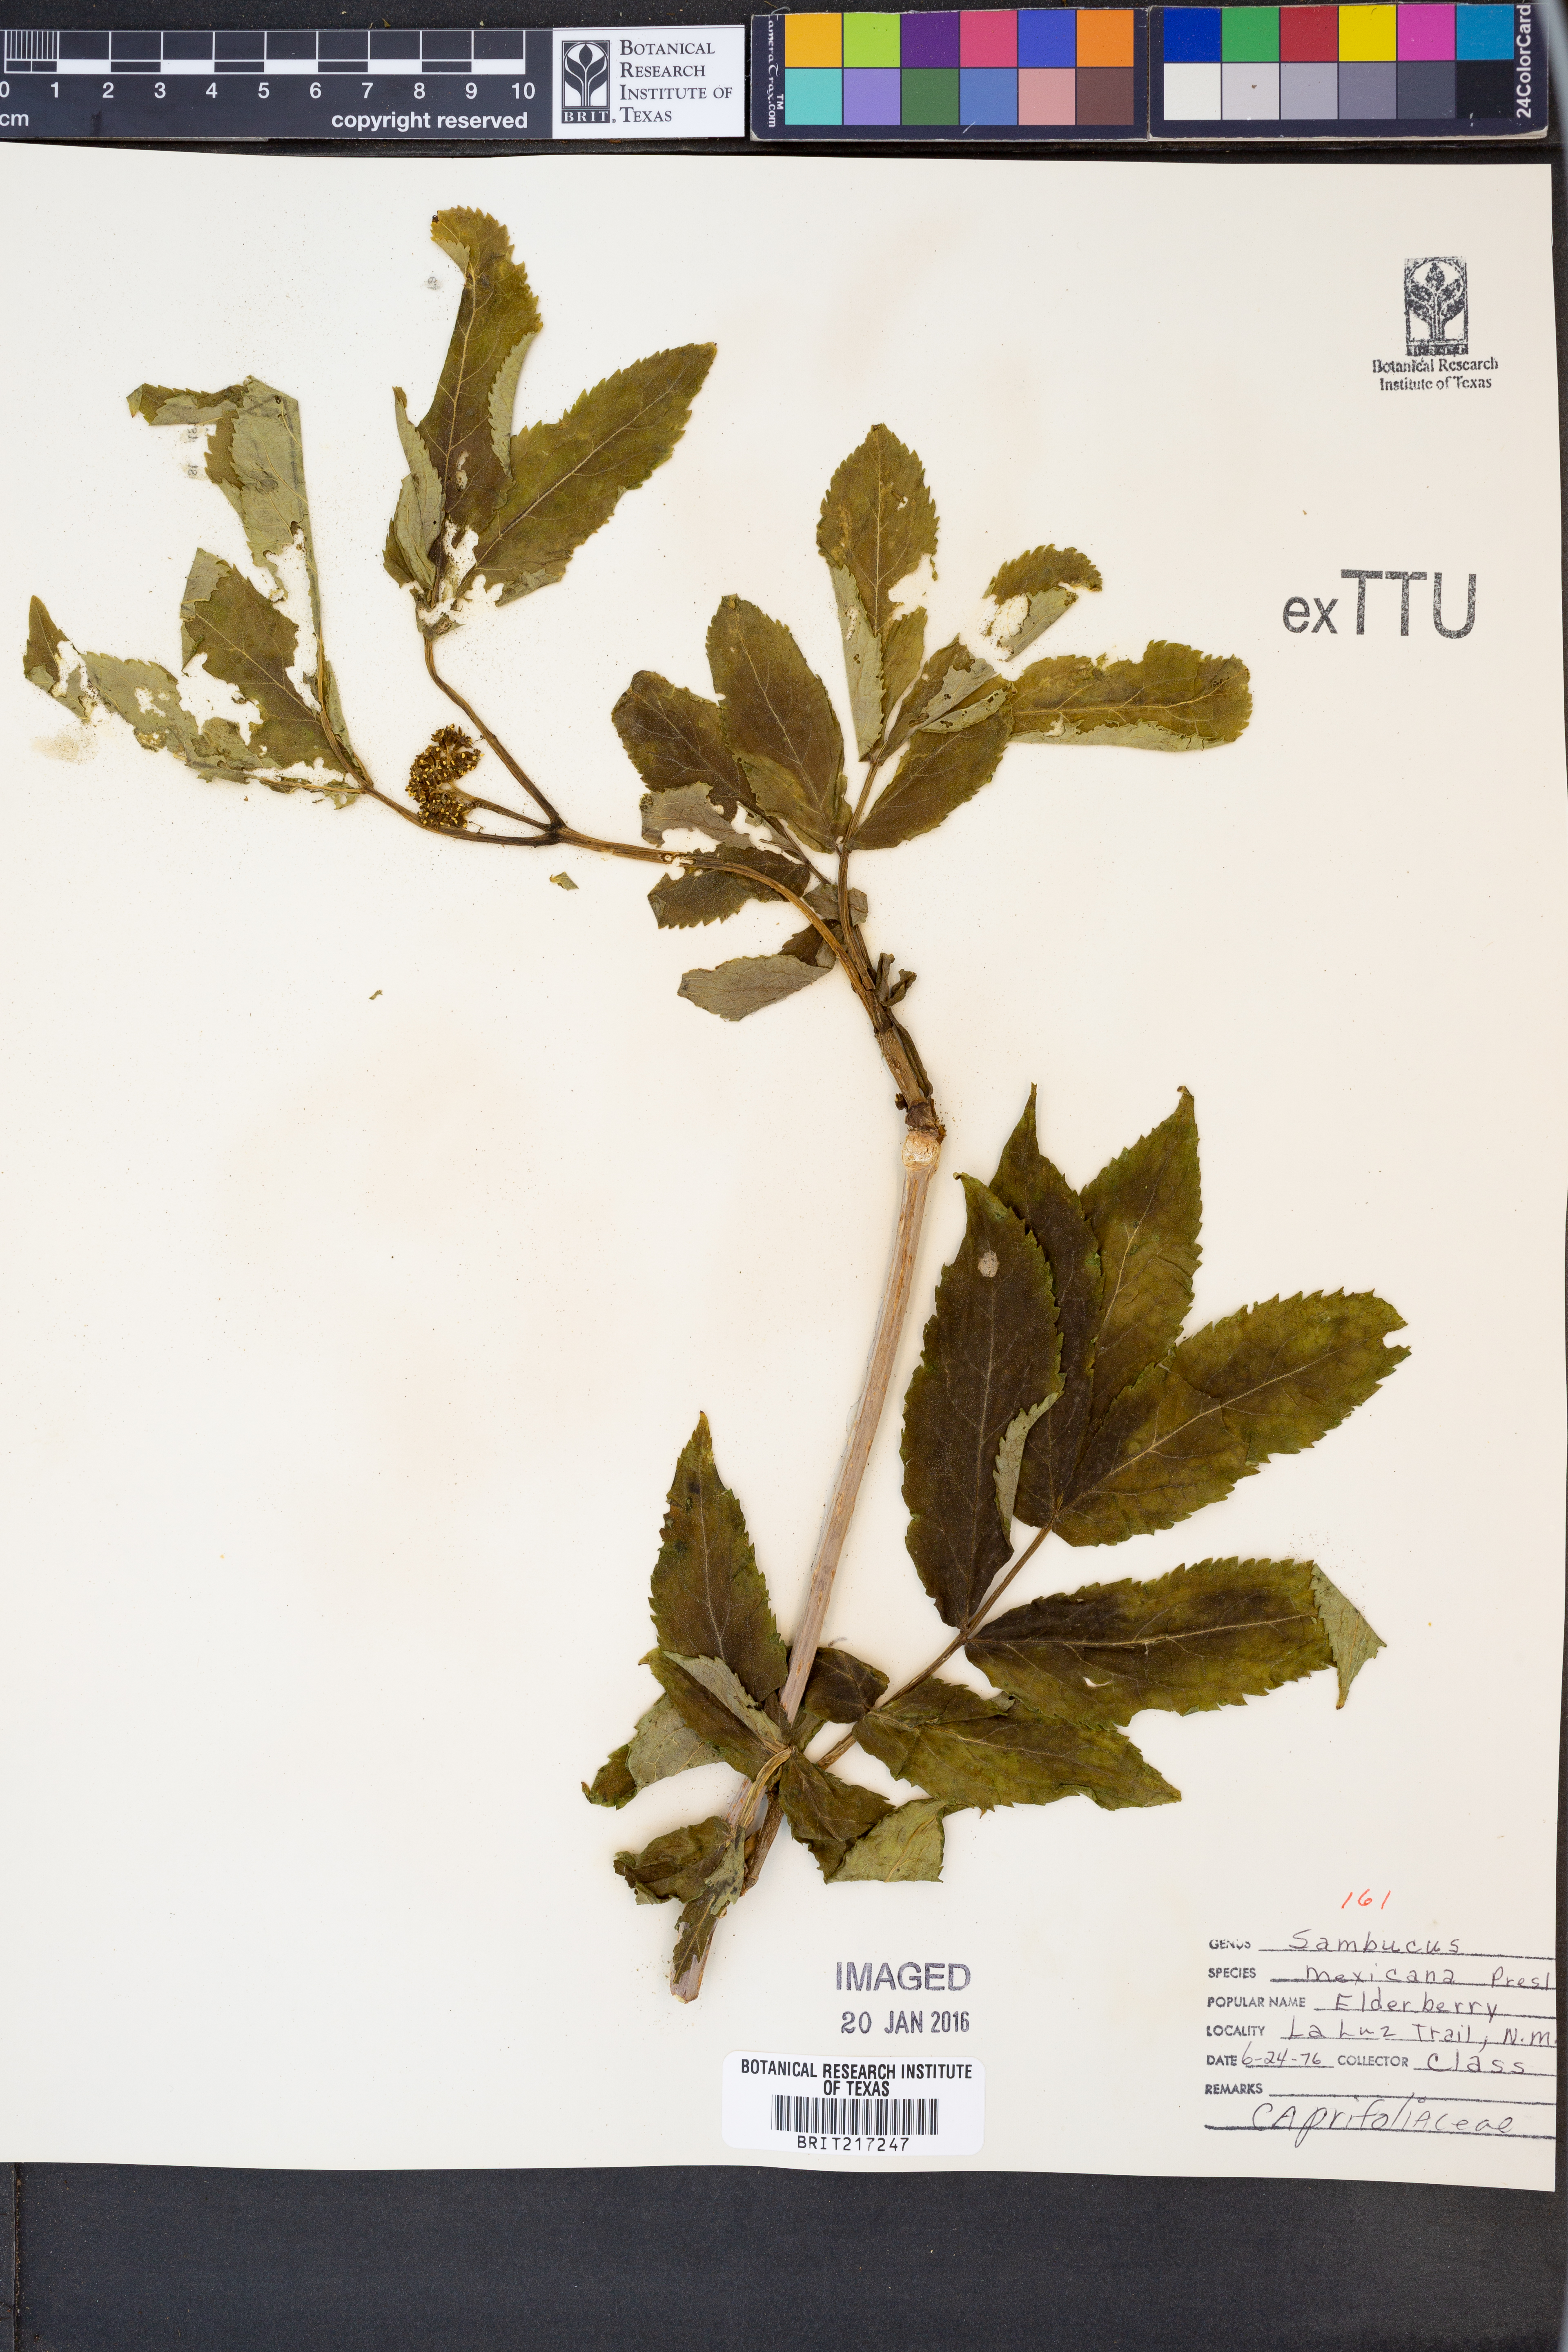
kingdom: Plantae
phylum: Tracheophyta
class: Magnoliopsida
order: Dipsacales
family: Viburnaceae
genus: Sambucus
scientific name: Sambucus mexicana
